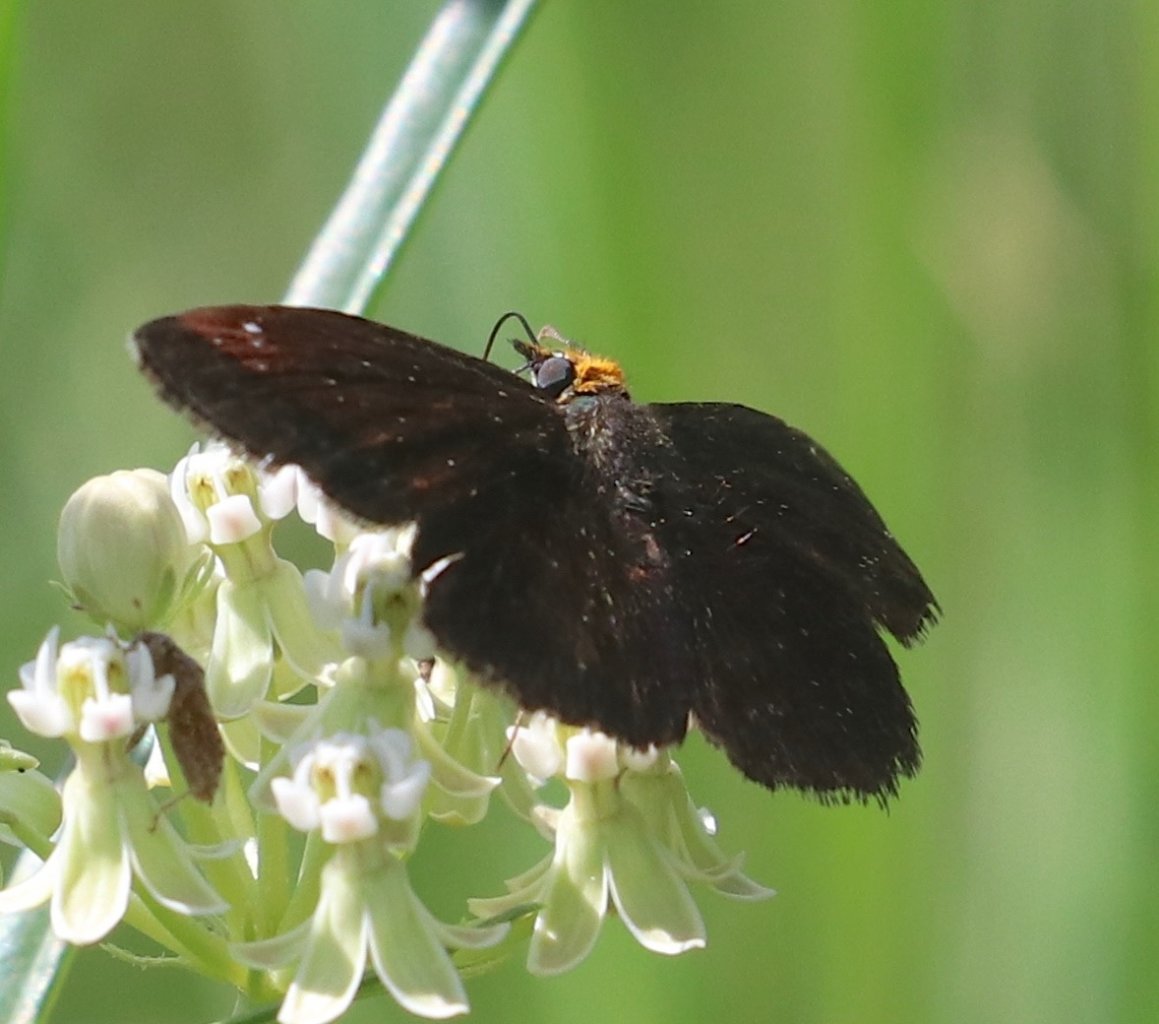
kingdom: Animalia
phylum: Arthropoda
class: Insecta
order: Lepidoptera
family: Hesperiidae
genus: Staphylus
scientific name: Staphylus ceos
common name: Golden-headed Scallopwing
